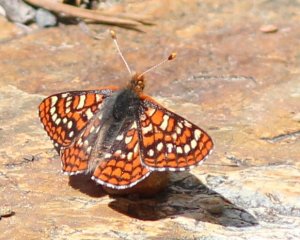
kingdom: Animalia
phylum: Arthropoda
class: Insecta
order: Lepidoptera
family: Nymphalidae
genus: Occidryas
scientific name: Occidryas editha
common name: Edith's Checkerspot
